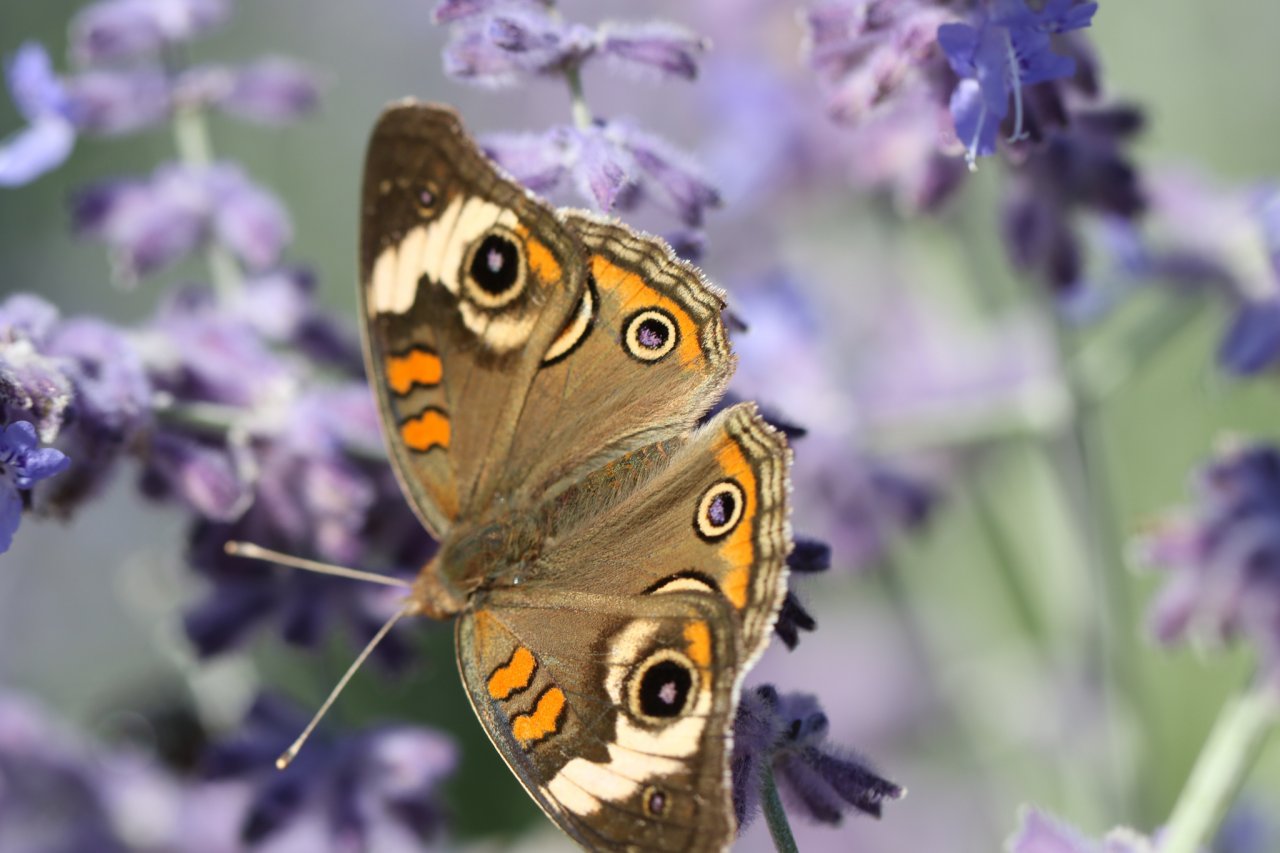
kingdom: Animalia
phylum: Arthropoda
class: Insecta
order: Lepidoptera
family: Nymphalidae
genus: Junonia
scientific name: Junonia coenia
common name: Common Buckeye
